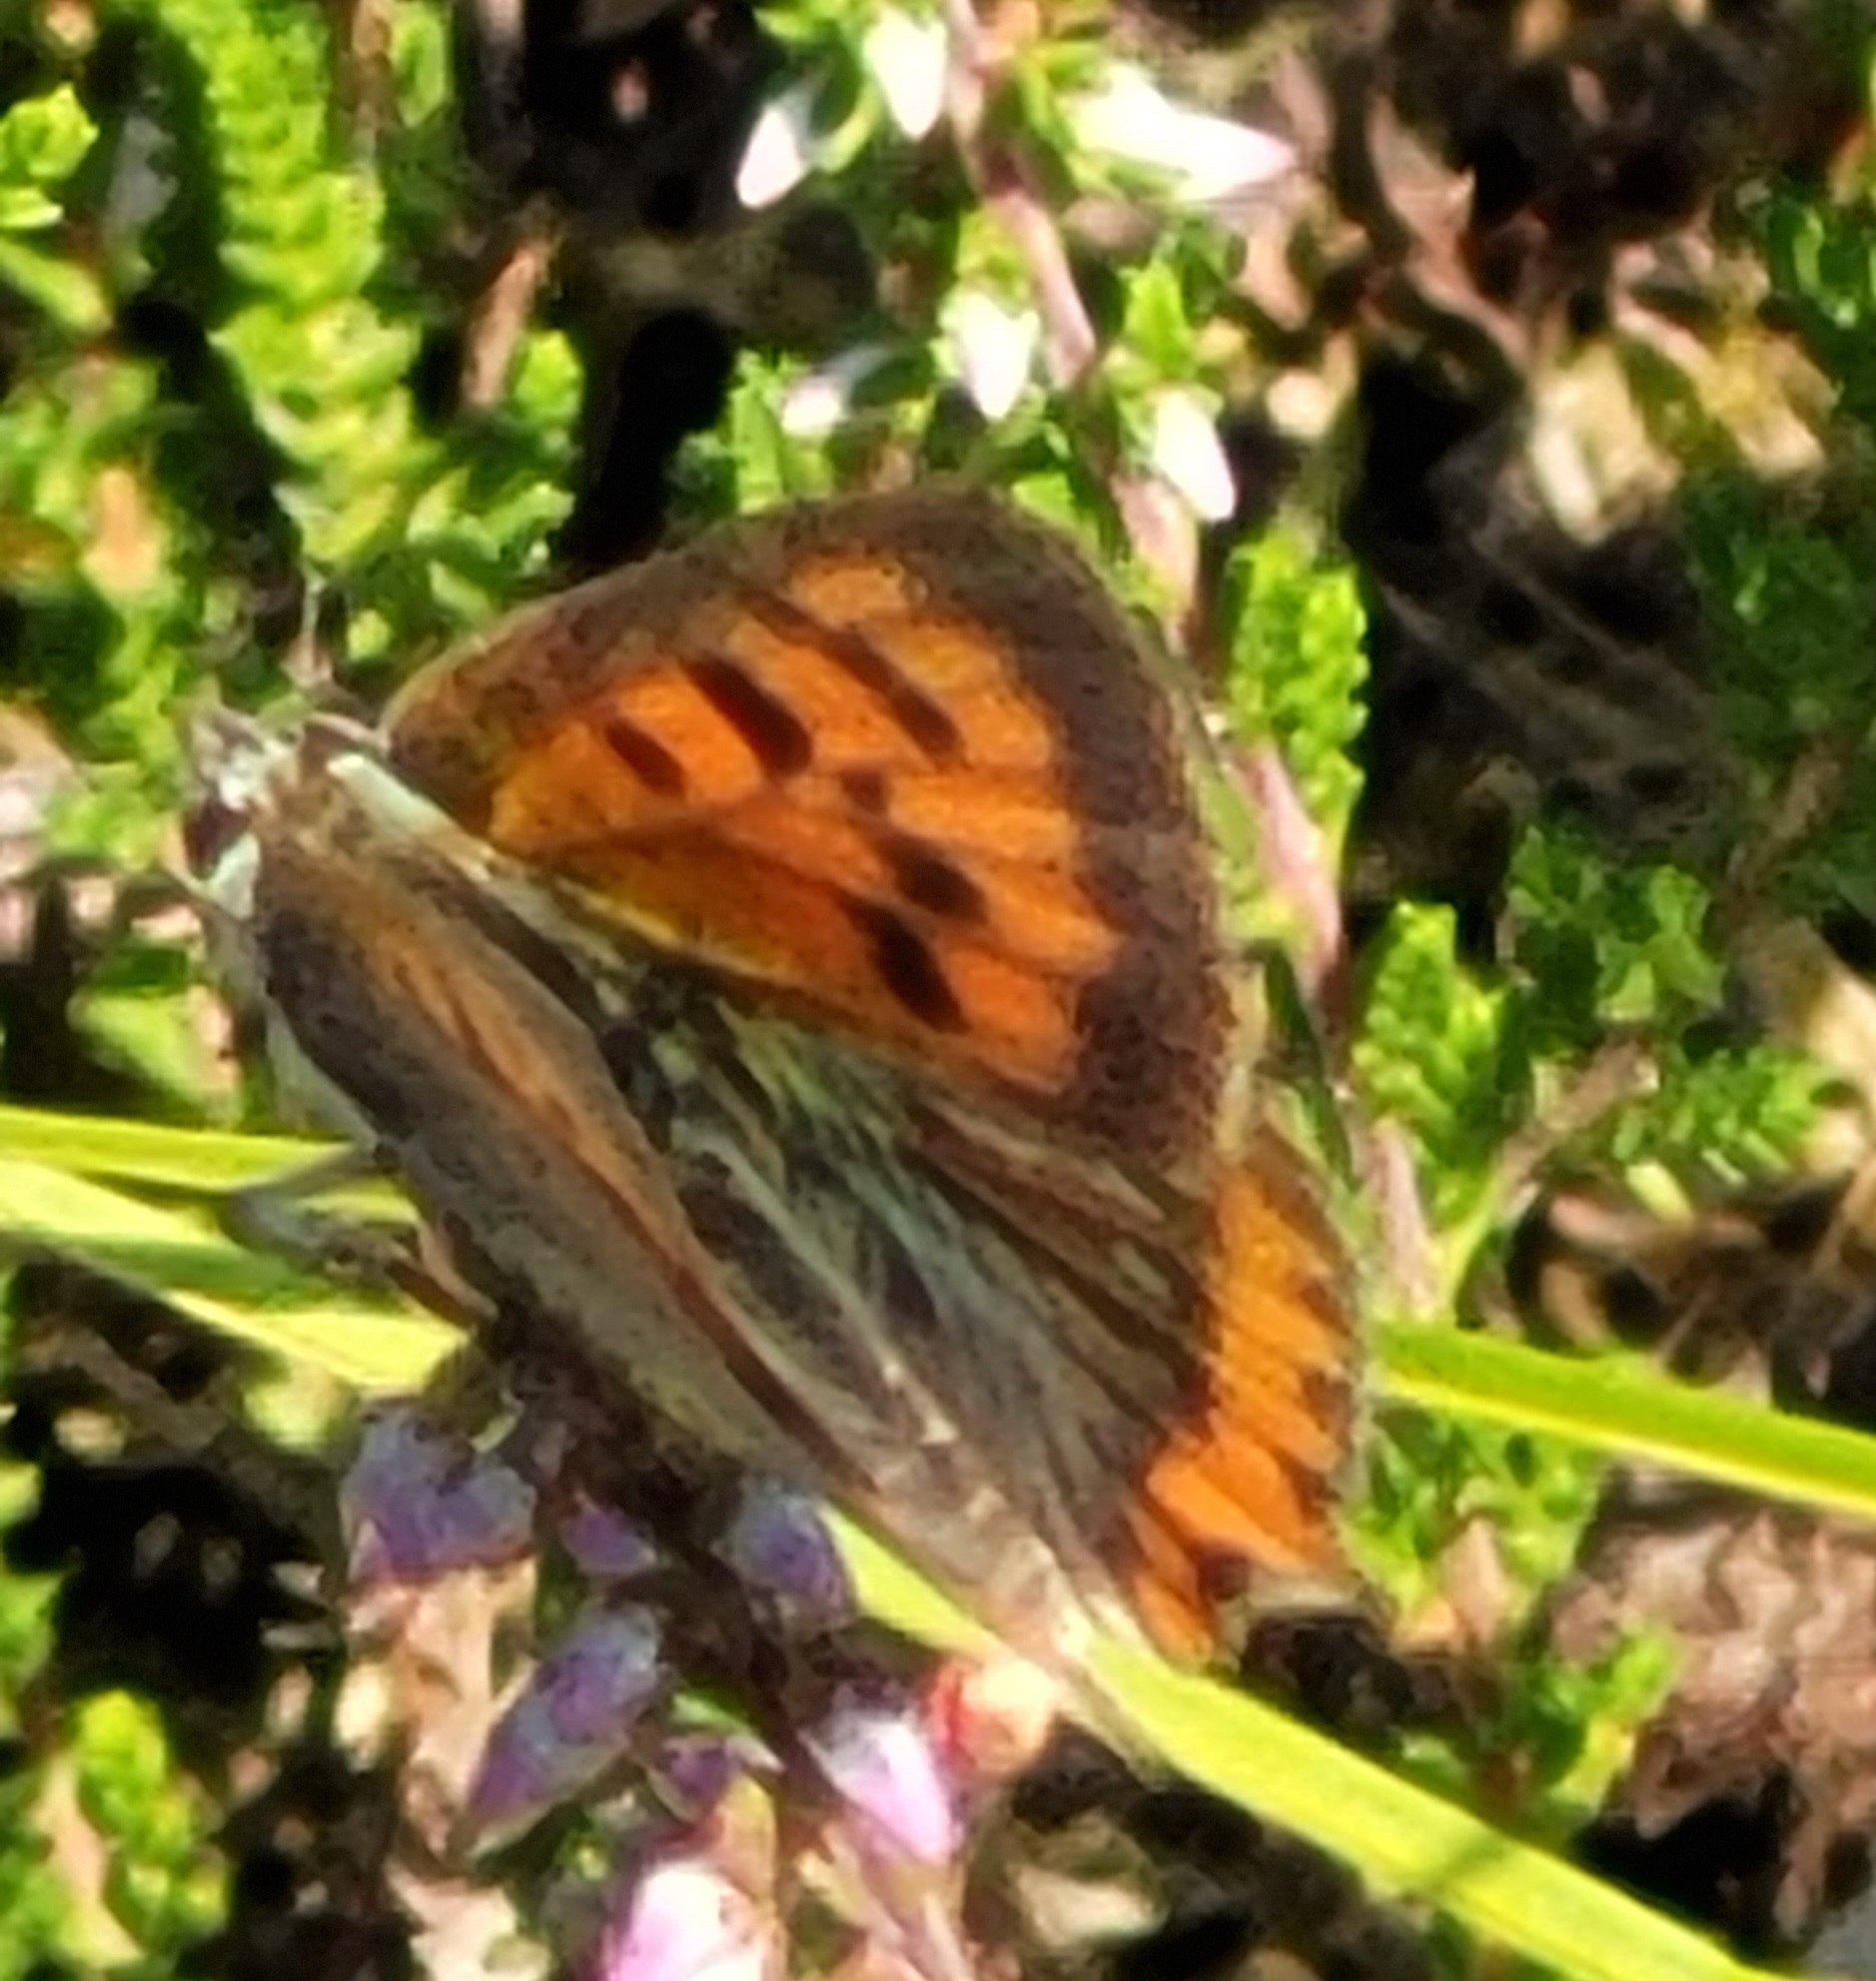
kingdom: Animalia
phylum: Arthropoda
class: Insecta
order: Lepidoptera
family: Lycaenidae
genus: Lycaena
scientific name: Lycaena phlaeas
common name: Lille ildfugl
